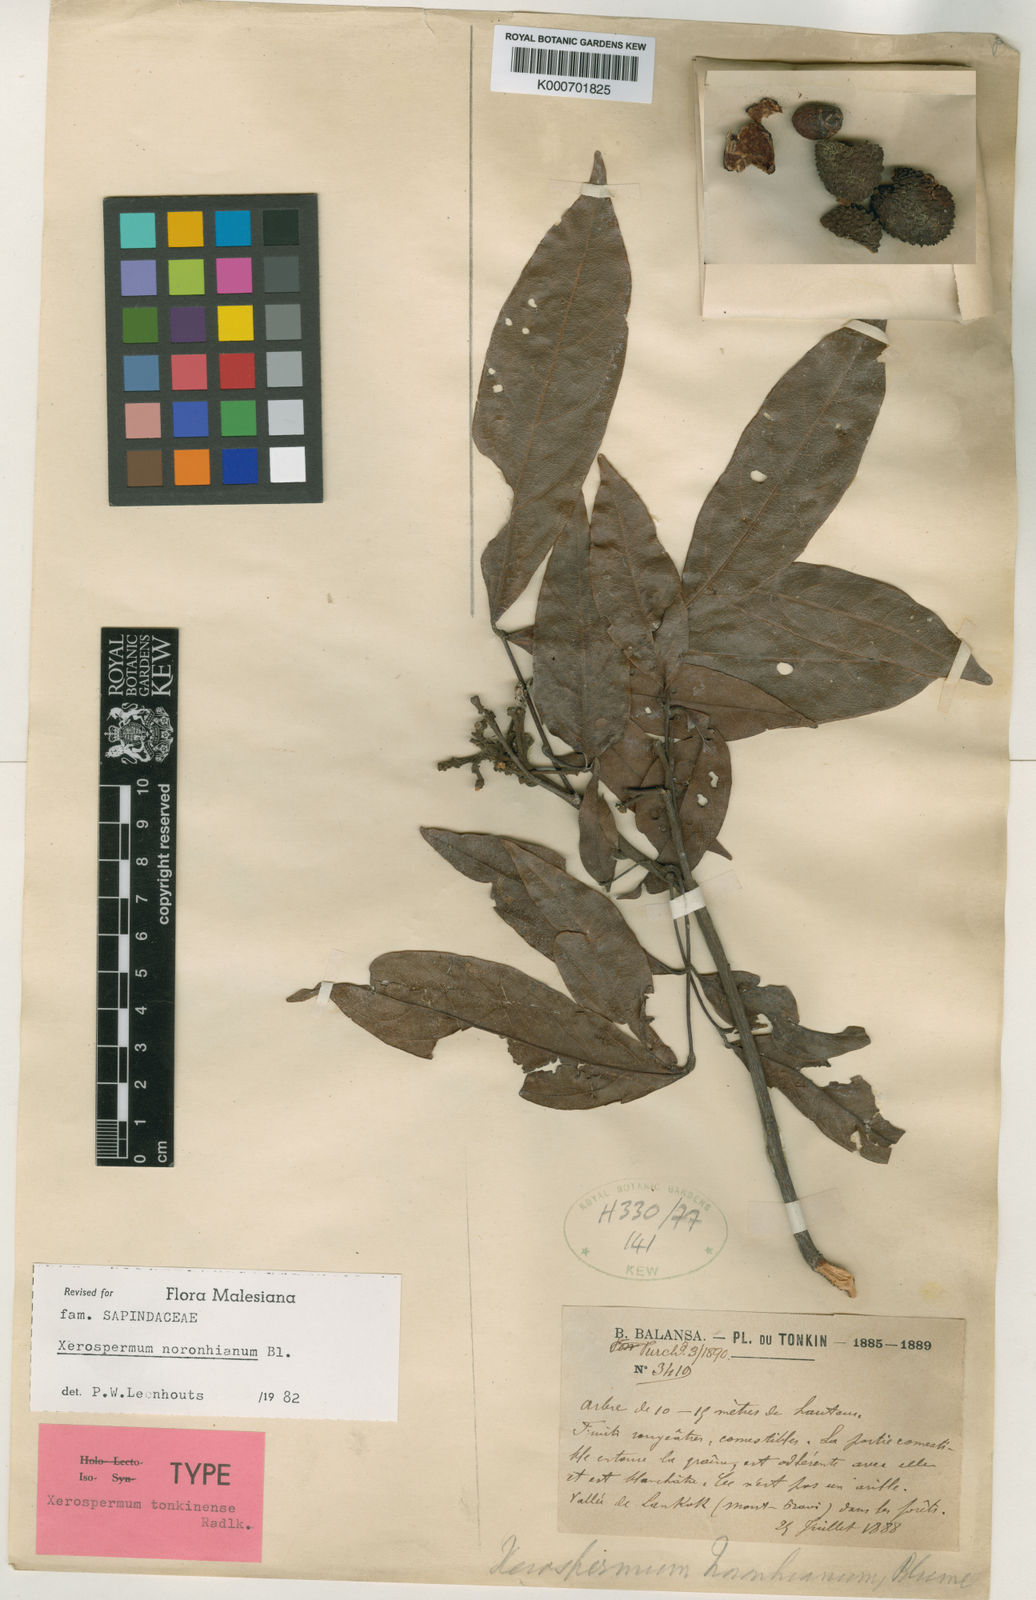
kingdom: Plantae
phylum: Tracheophyta
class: Magnoliopsida
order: Sapindales
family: Sapindaceae
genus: Xerospermum
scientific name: Xerospermum noronhianum
